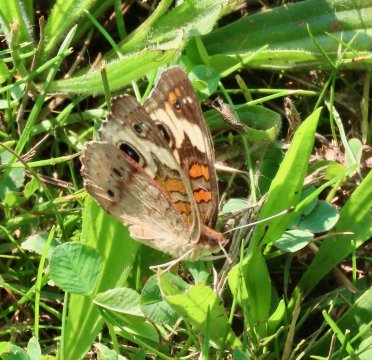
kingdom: Animalia
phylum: Arthropoda
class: Insecta
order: Lepidoptera
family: Nymphalidae
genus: Junonia
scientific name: Junonia coenia
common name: Common Buckeye
